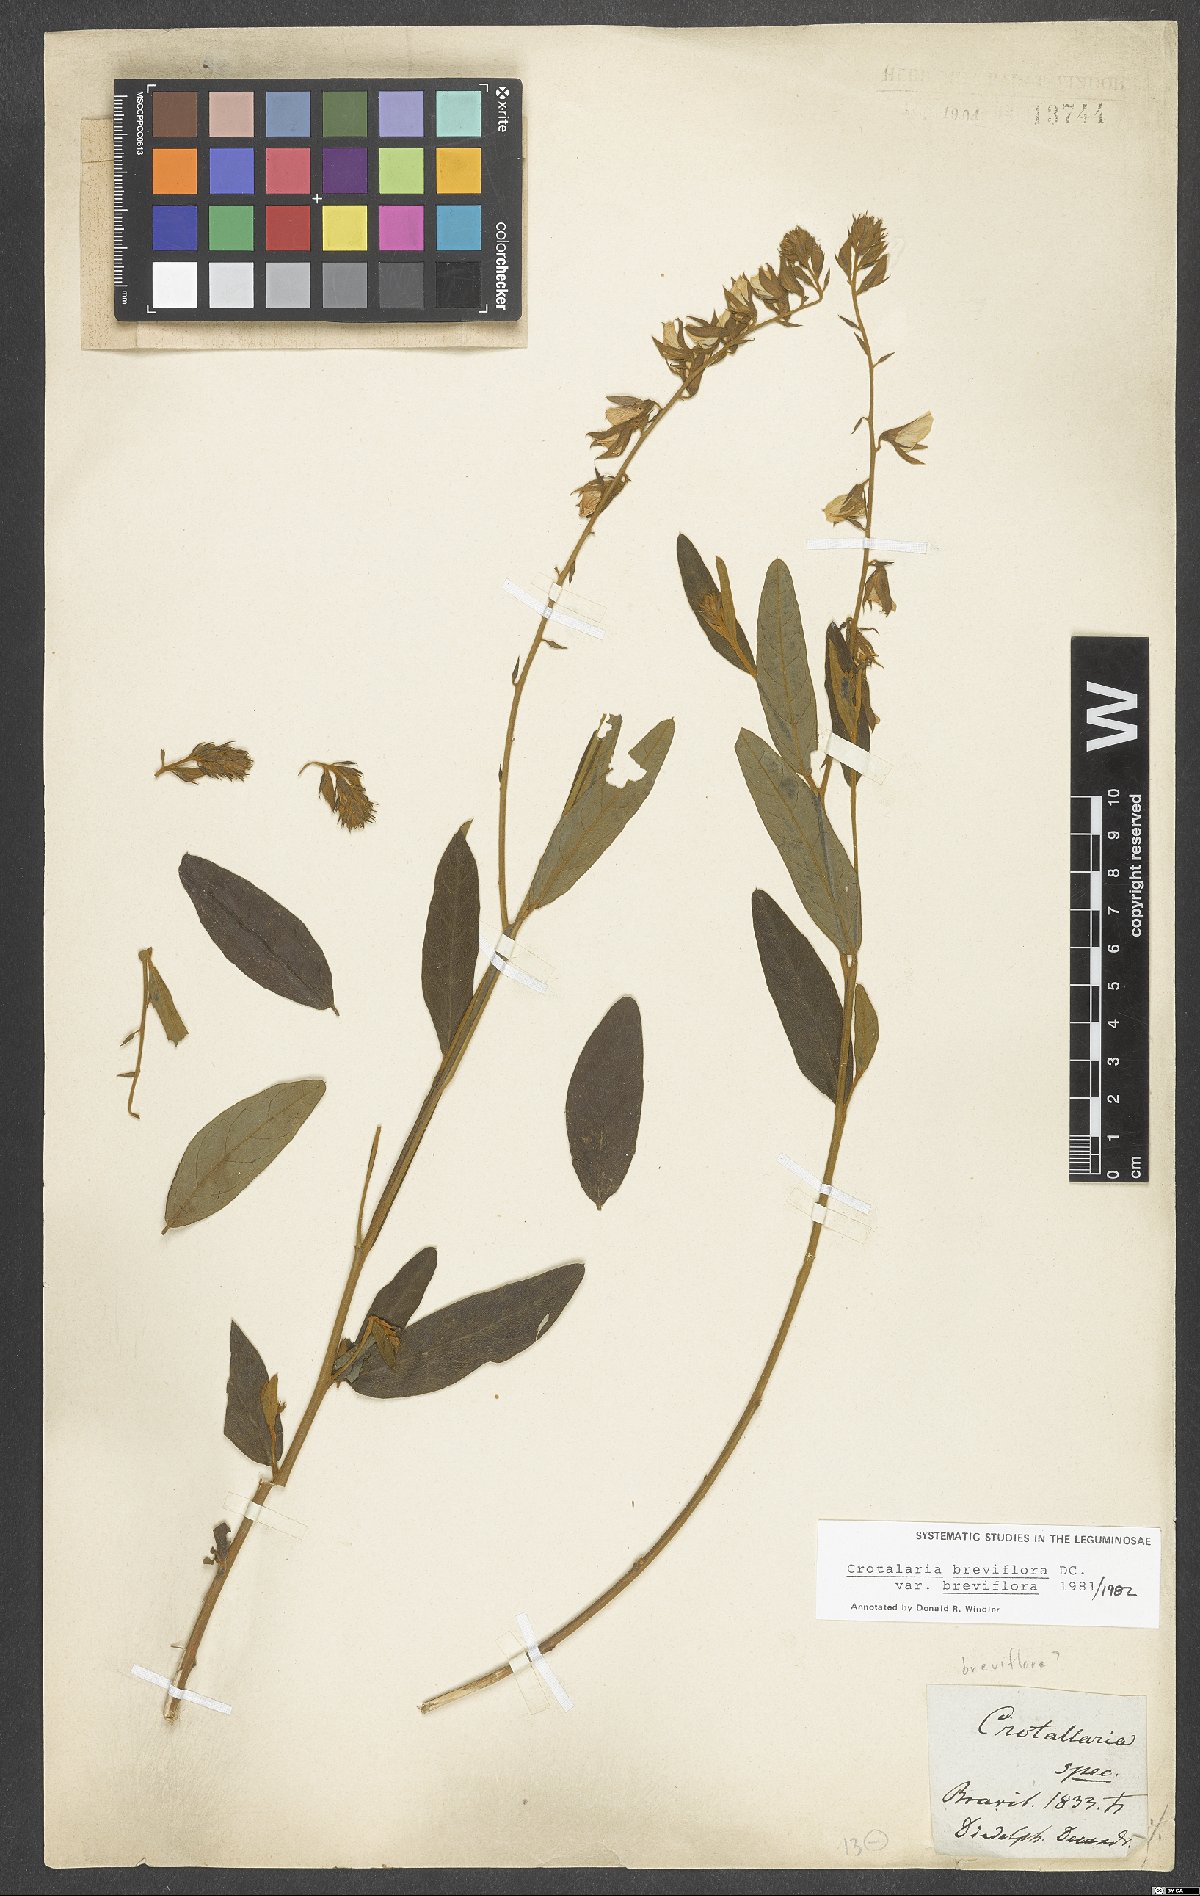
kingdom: Plantae
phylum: Tracheophyta
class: Magnoliopsida
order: Fabales
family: Fabaceae
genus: Crotalaria
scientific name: Crotalaria breviflora
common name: Short-flower crotalaria
